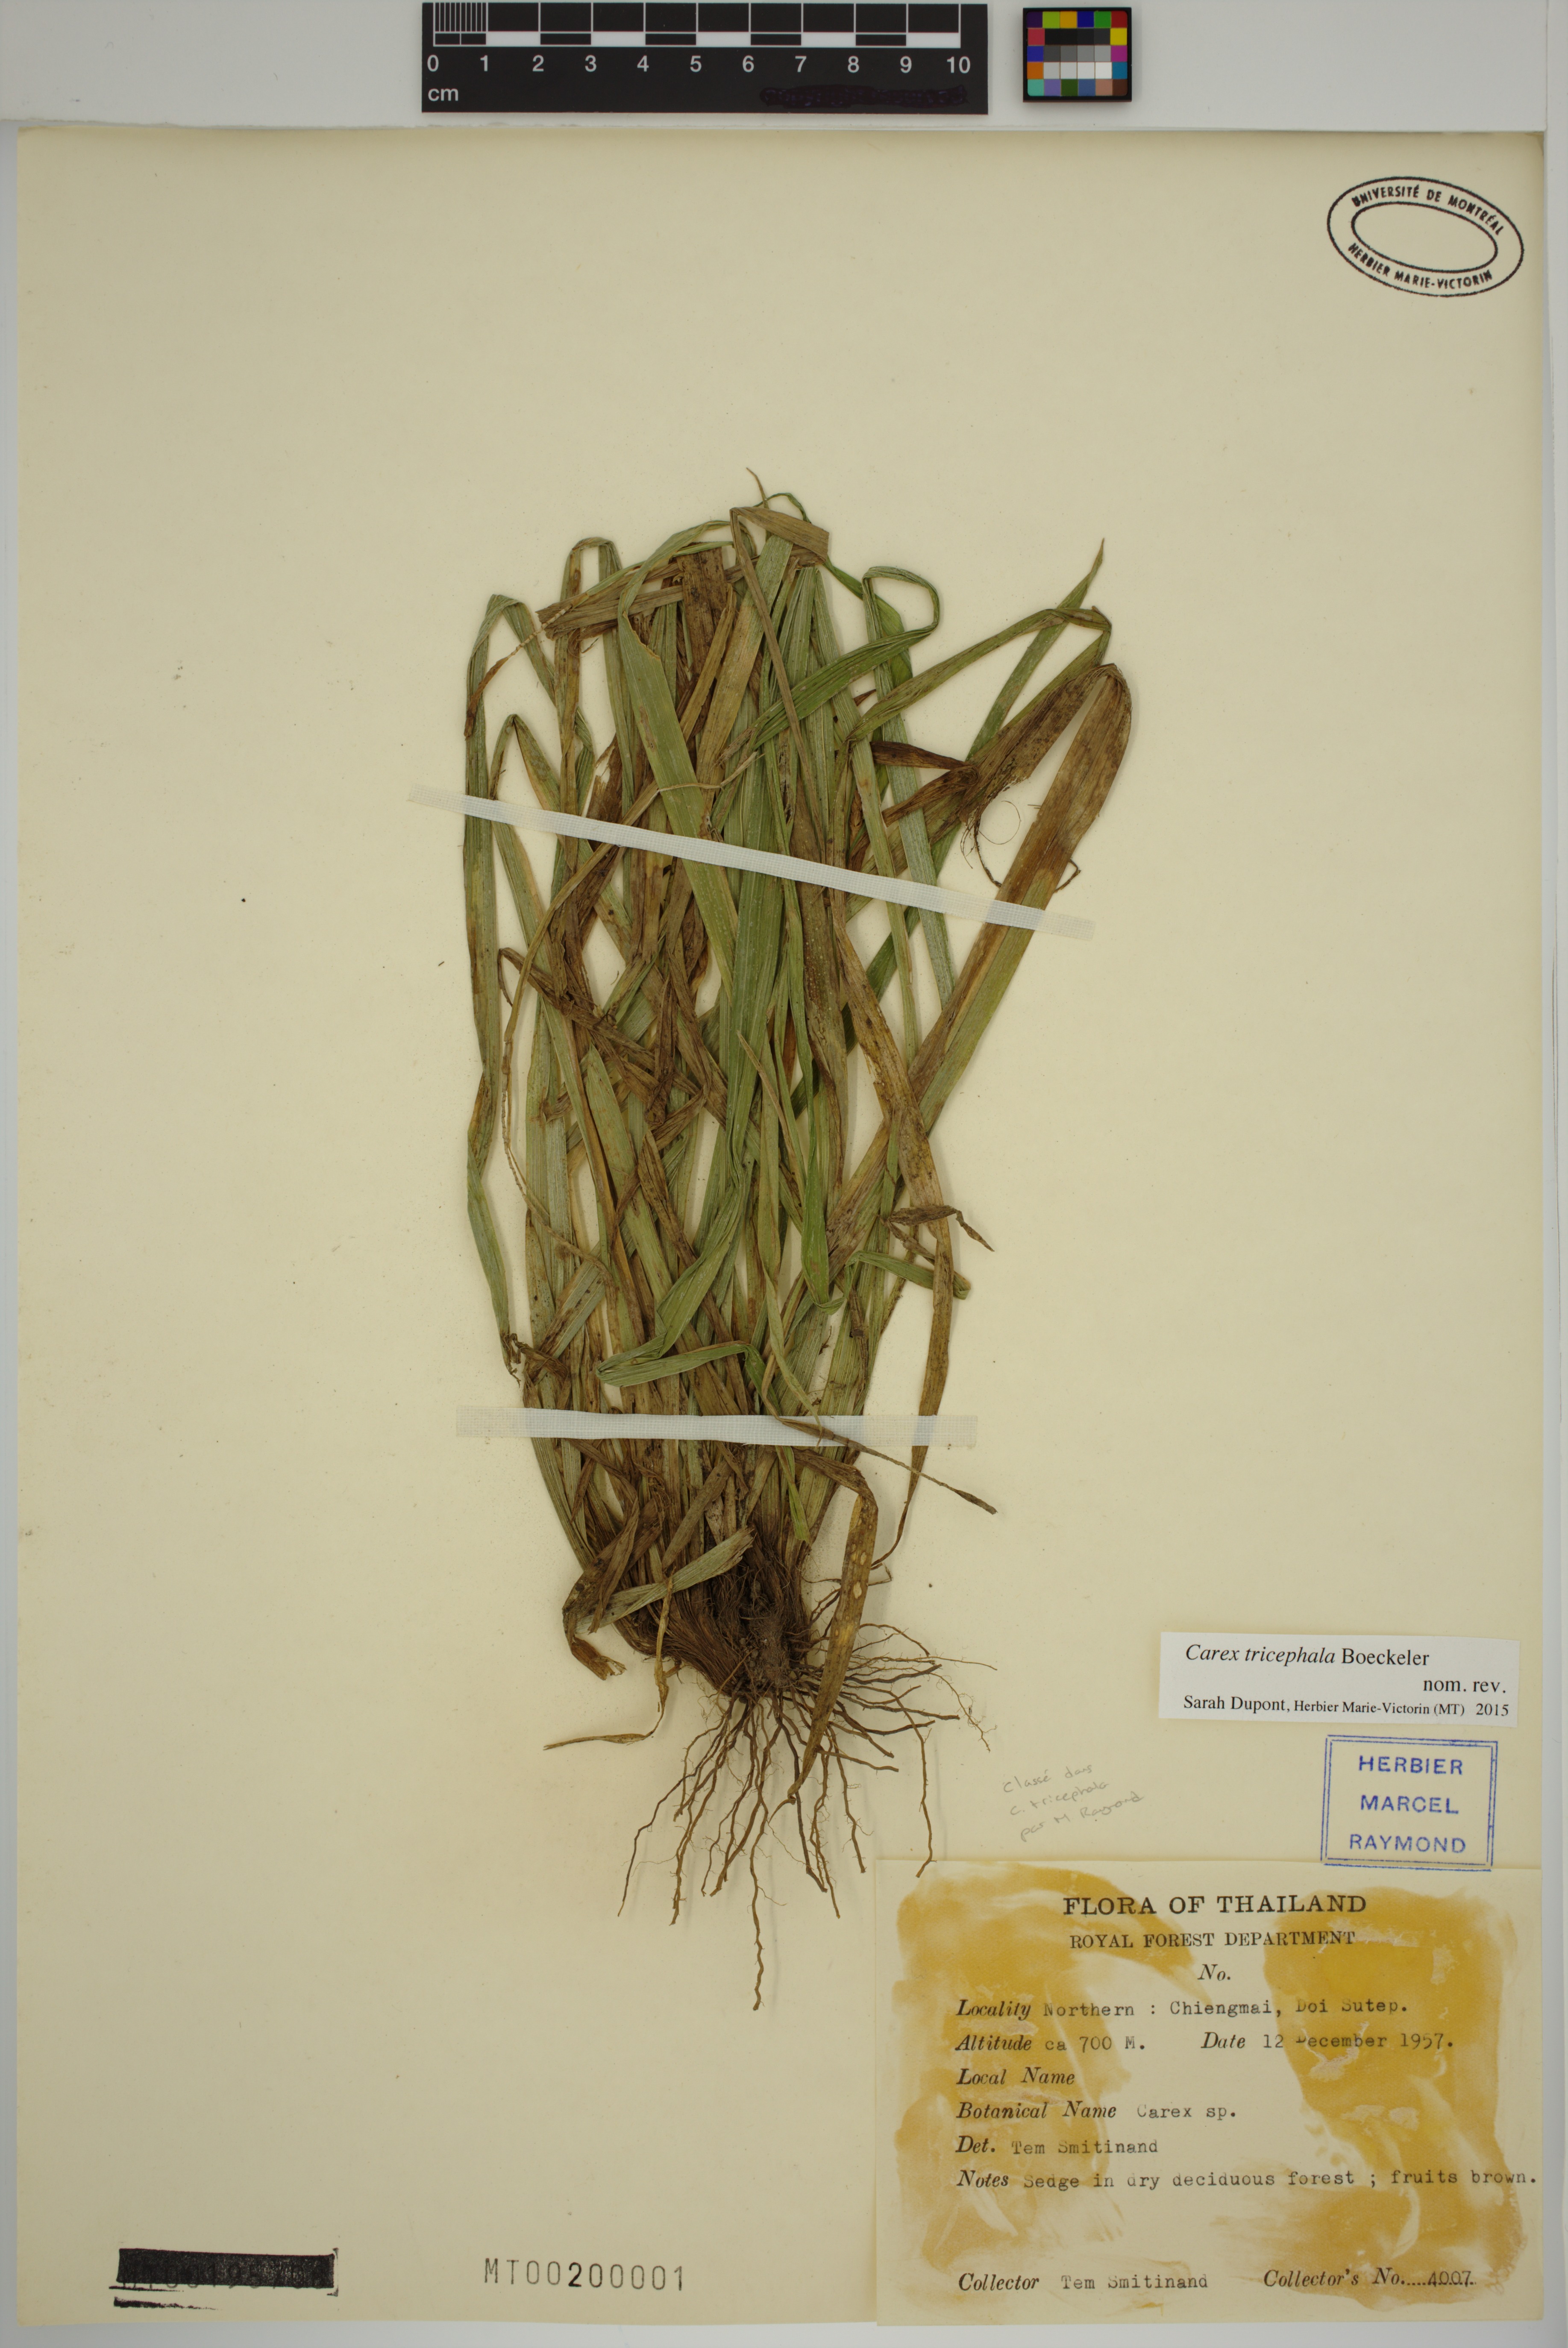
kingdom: Plantae
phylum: Tracheophyta
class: Liliopsida
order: Poales
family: Cyperaceae
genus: Carex
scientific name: Carex tricephala
